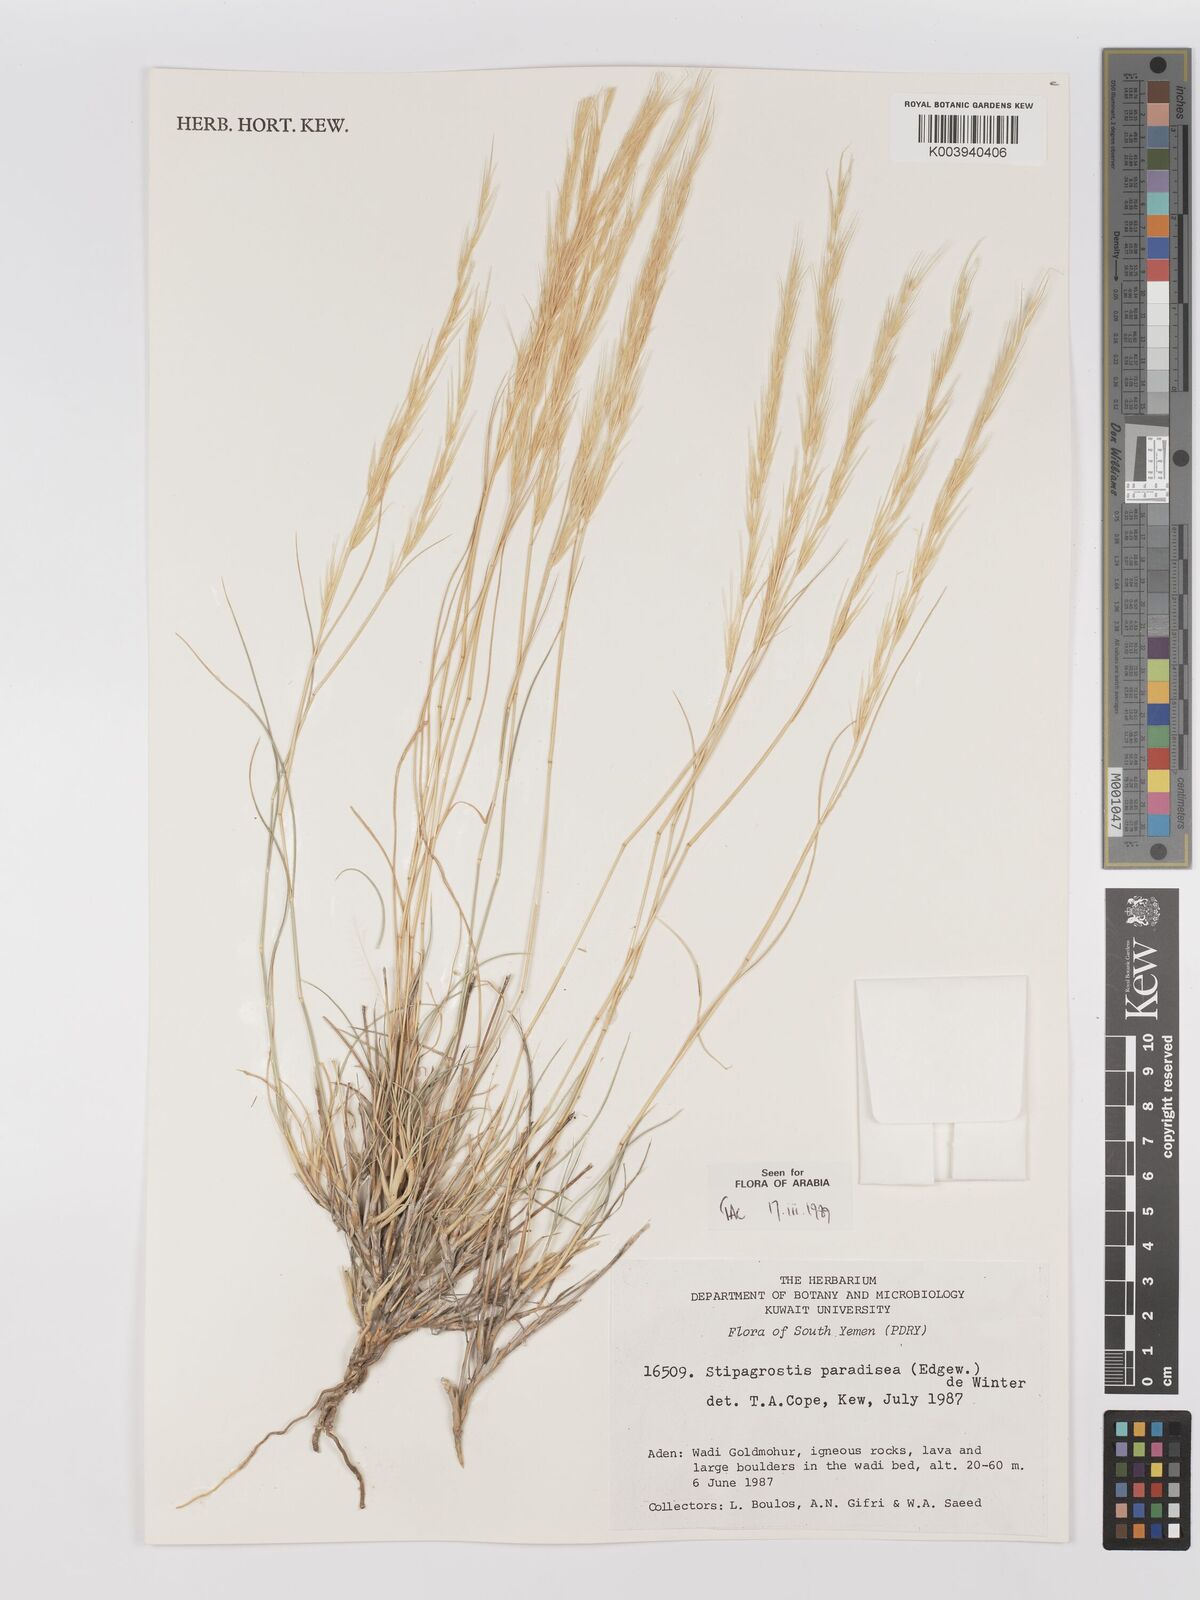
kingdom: Plantae
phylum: Tracheophyta
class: Liliopsida
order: Poales
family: Poaceae
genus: Stipagrostis
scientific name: Stipagrostis paradisea
